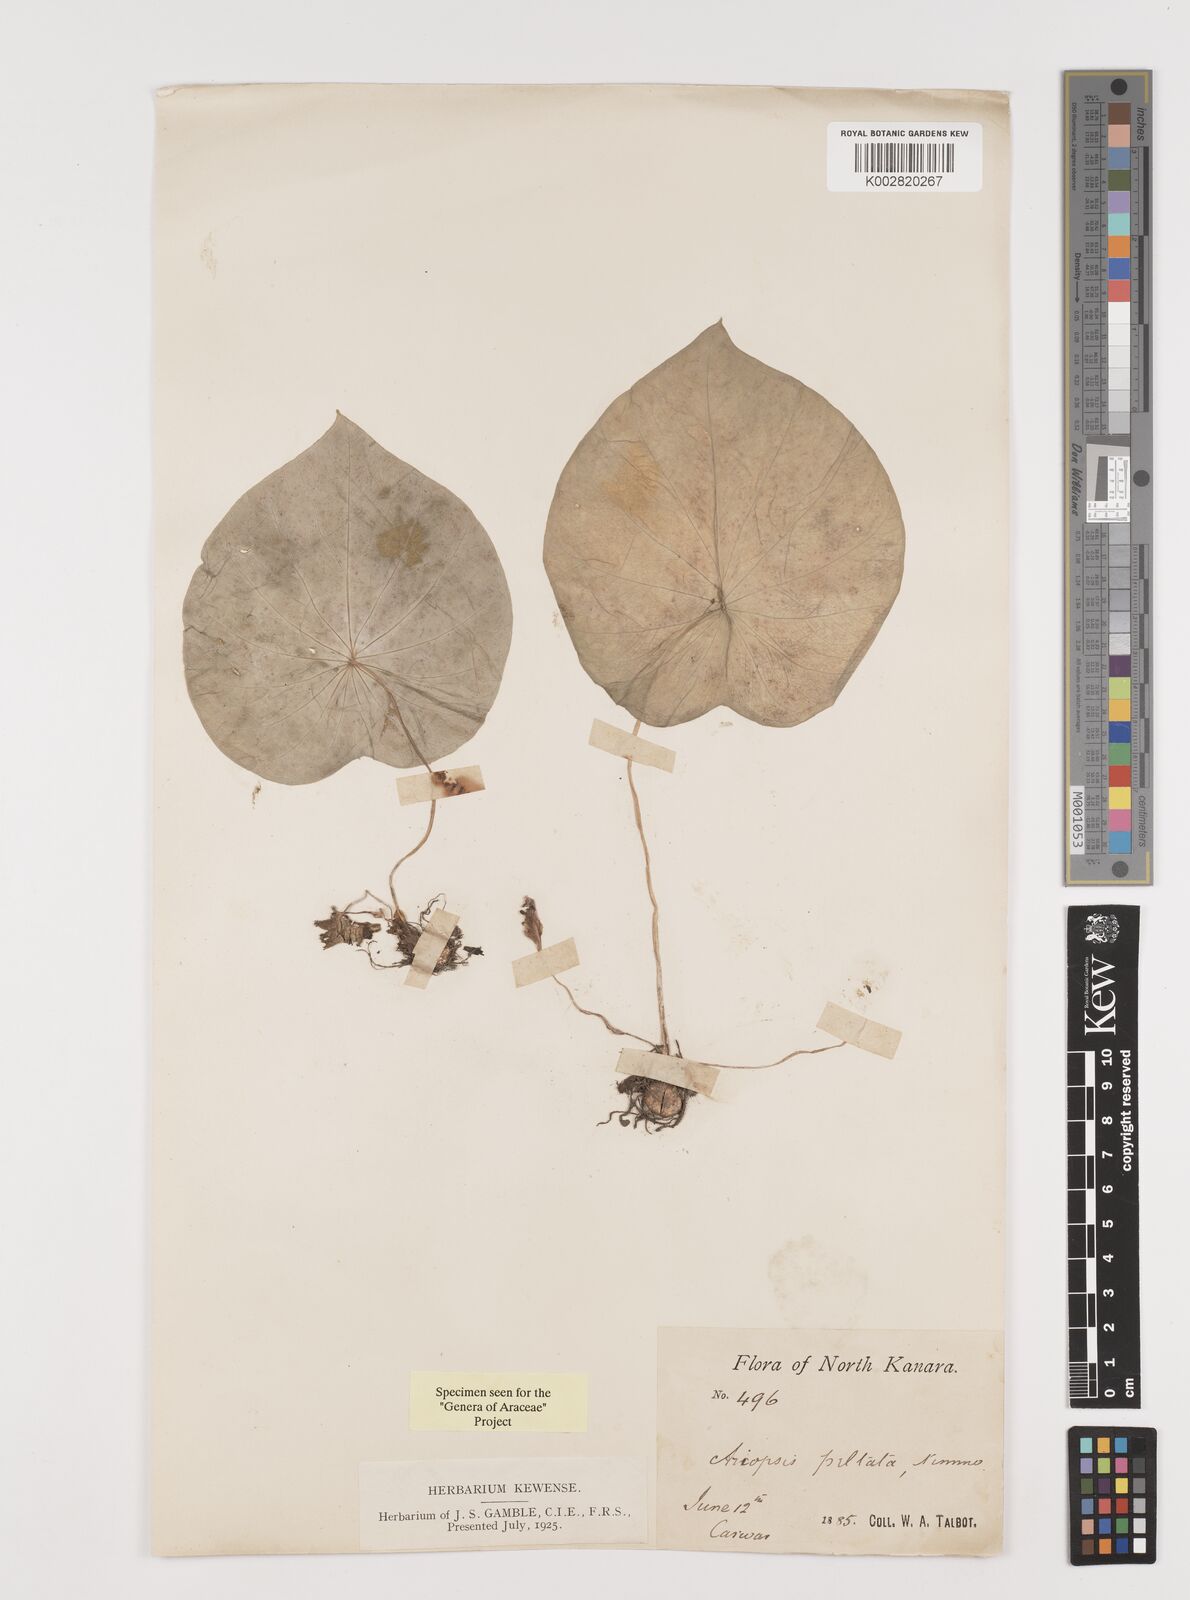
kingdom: Plantae
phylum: Tracheophyta
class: Liliopsida
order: Alismatales
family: Araceae
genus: Ariopsis
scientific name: Ariopsis peltata
